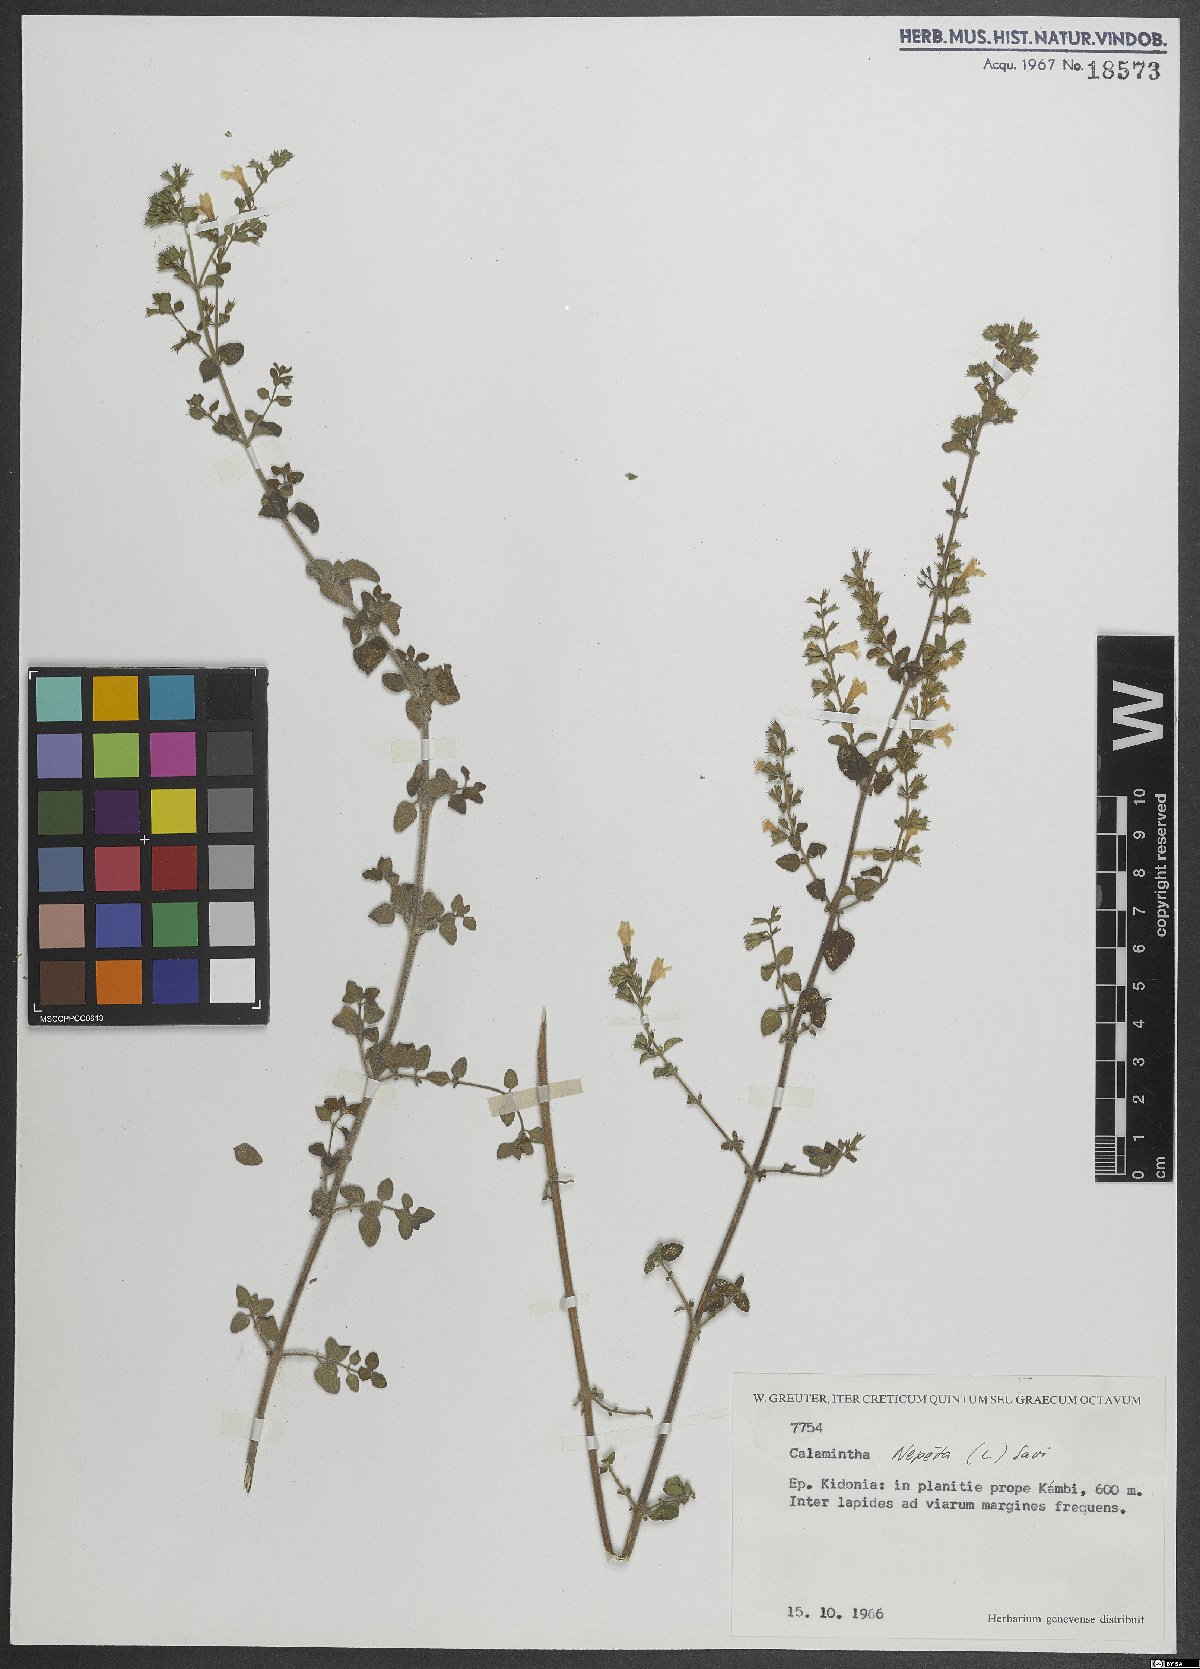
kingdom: Plantae
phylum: Tracheophyta
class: Magnoliopsida
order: Lamiales
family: Lamiaceae
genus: Clinopodium
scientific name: Clinopodium nepeta
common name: Lesser calamint
